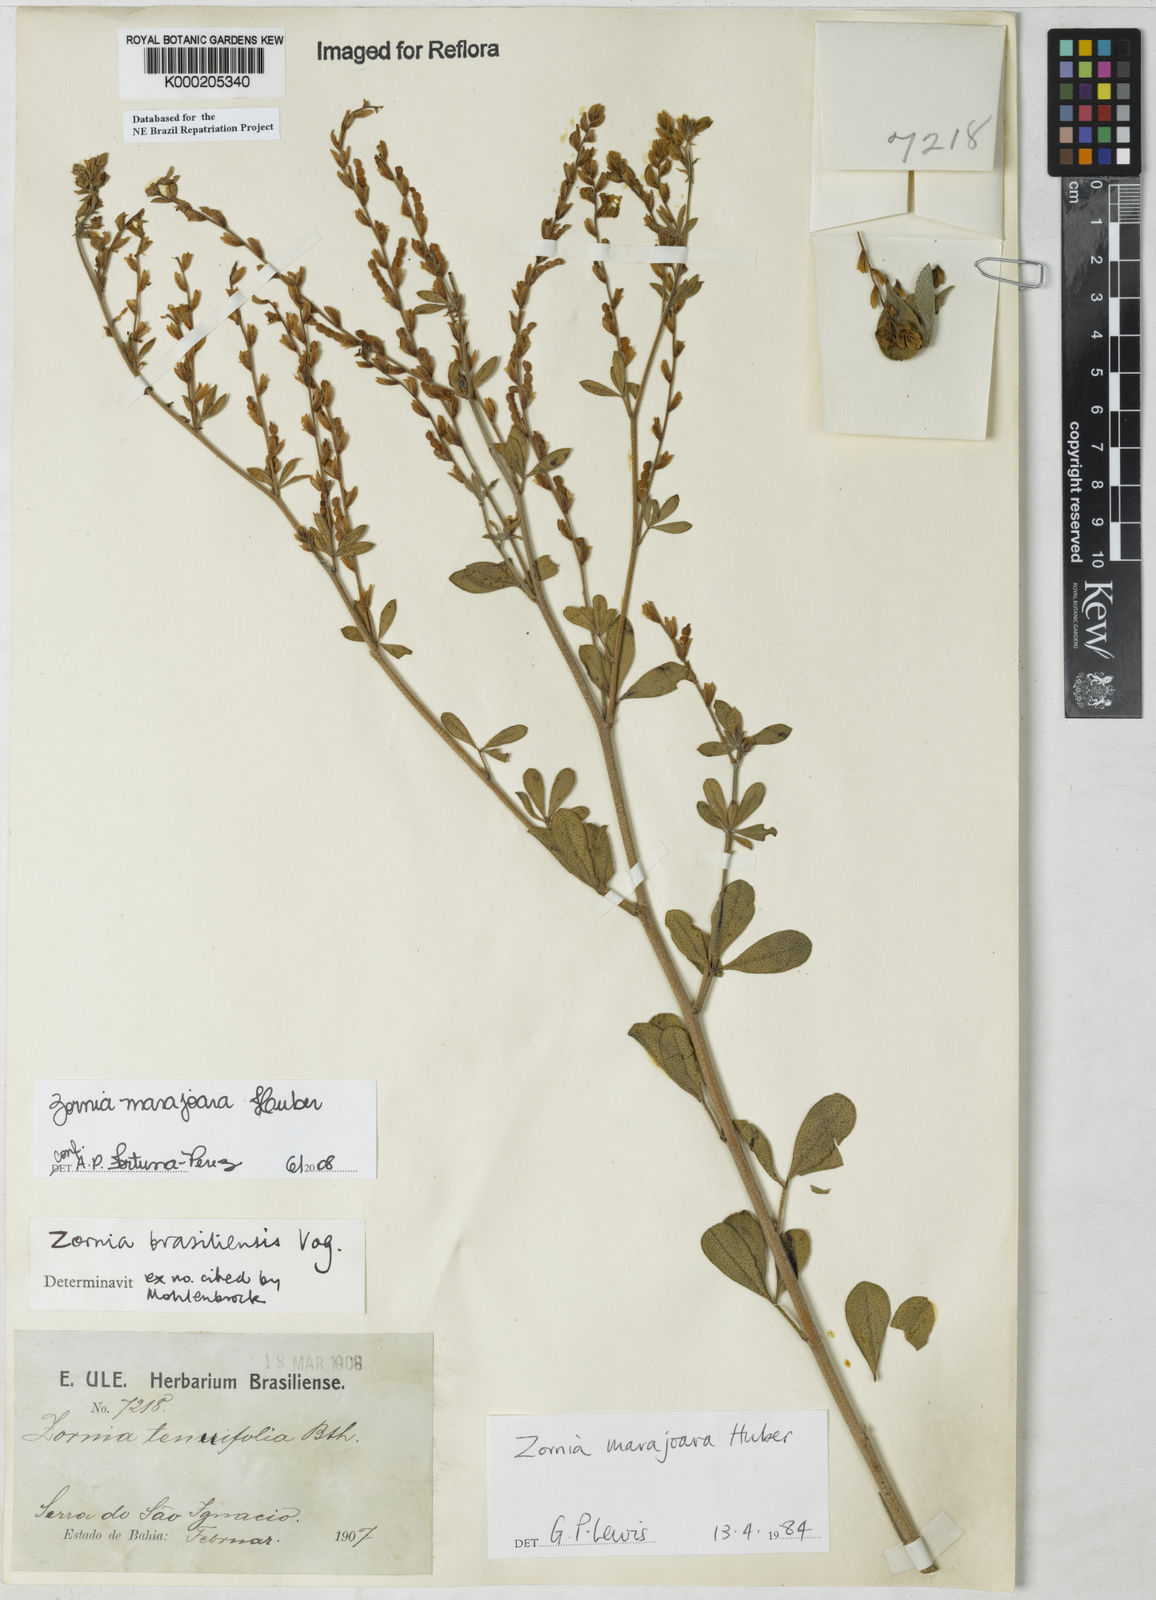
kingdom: Plantae
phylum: Tracheophyta
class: Magnoliopsida
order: Fabales
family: Fabaceae
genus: Zornia
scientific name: Zornia guanipensis
